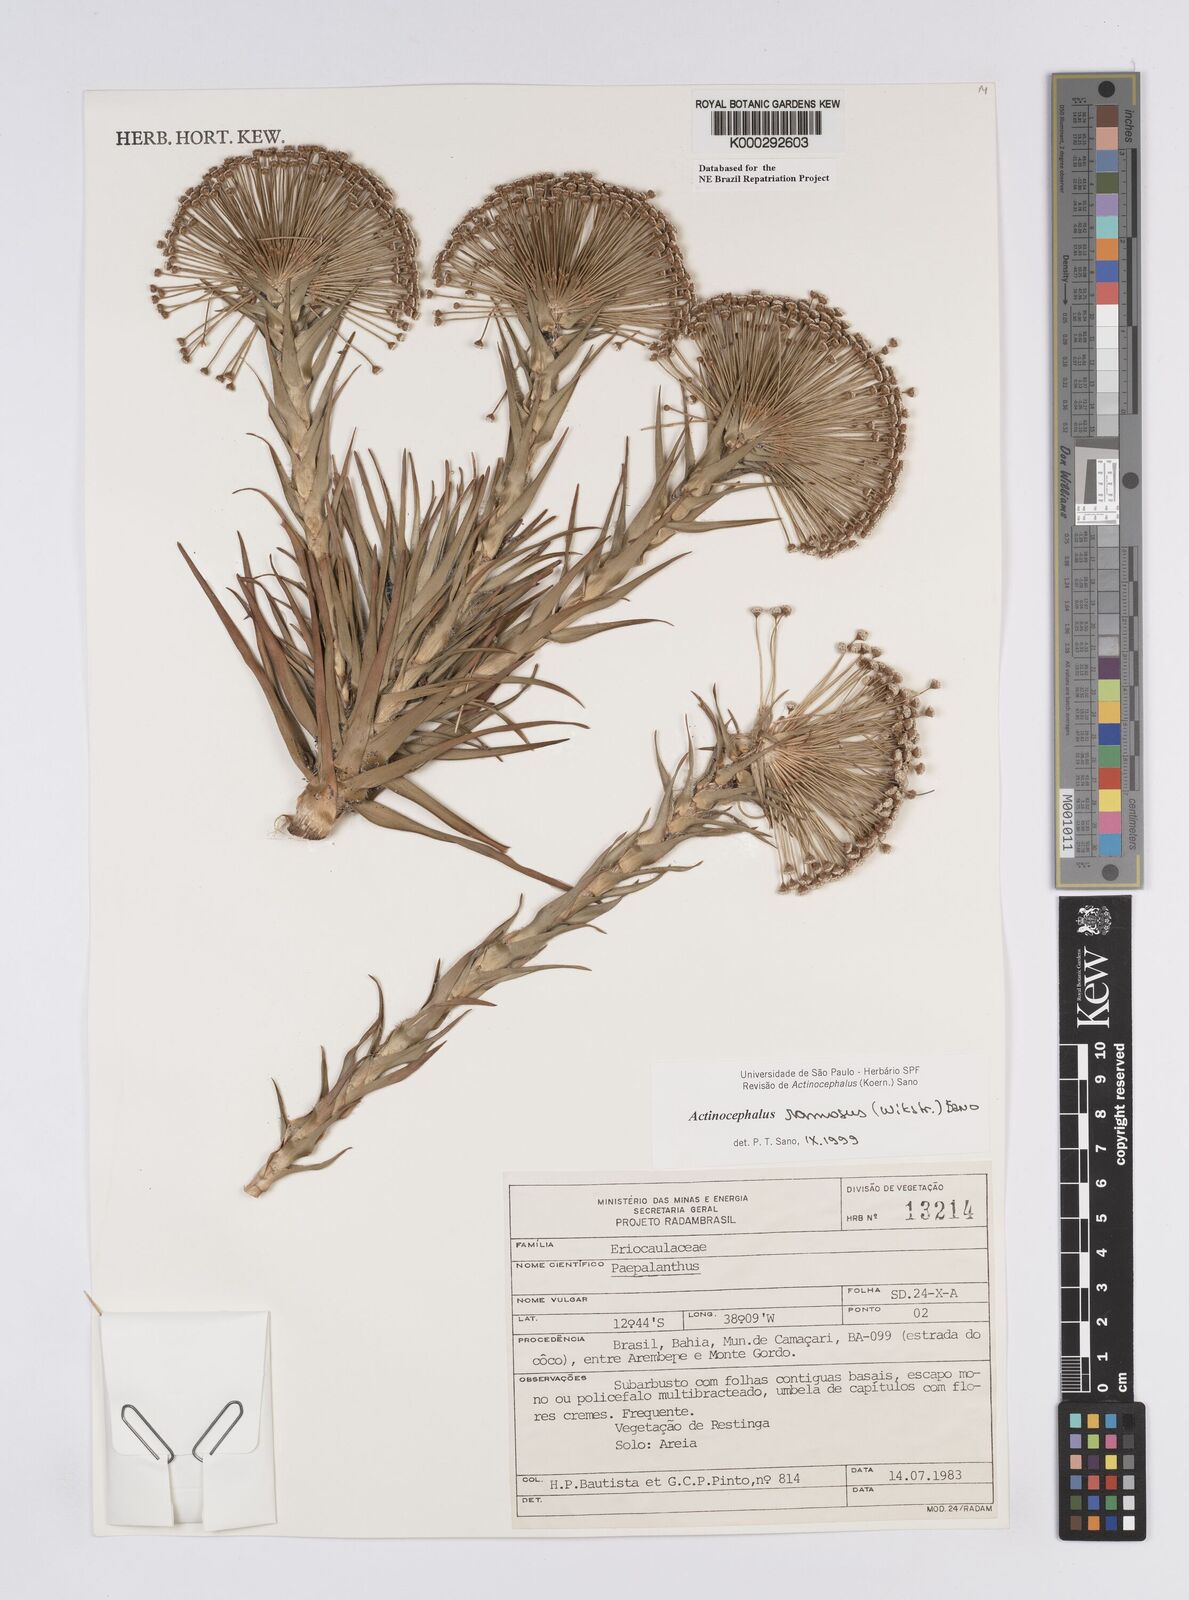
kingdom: Plantae
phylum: Tracheophyta
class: Liliopsida
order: Poales
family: Eriocaulaceae
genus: Paepalanthus
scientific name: Paepalanthus ramosus
